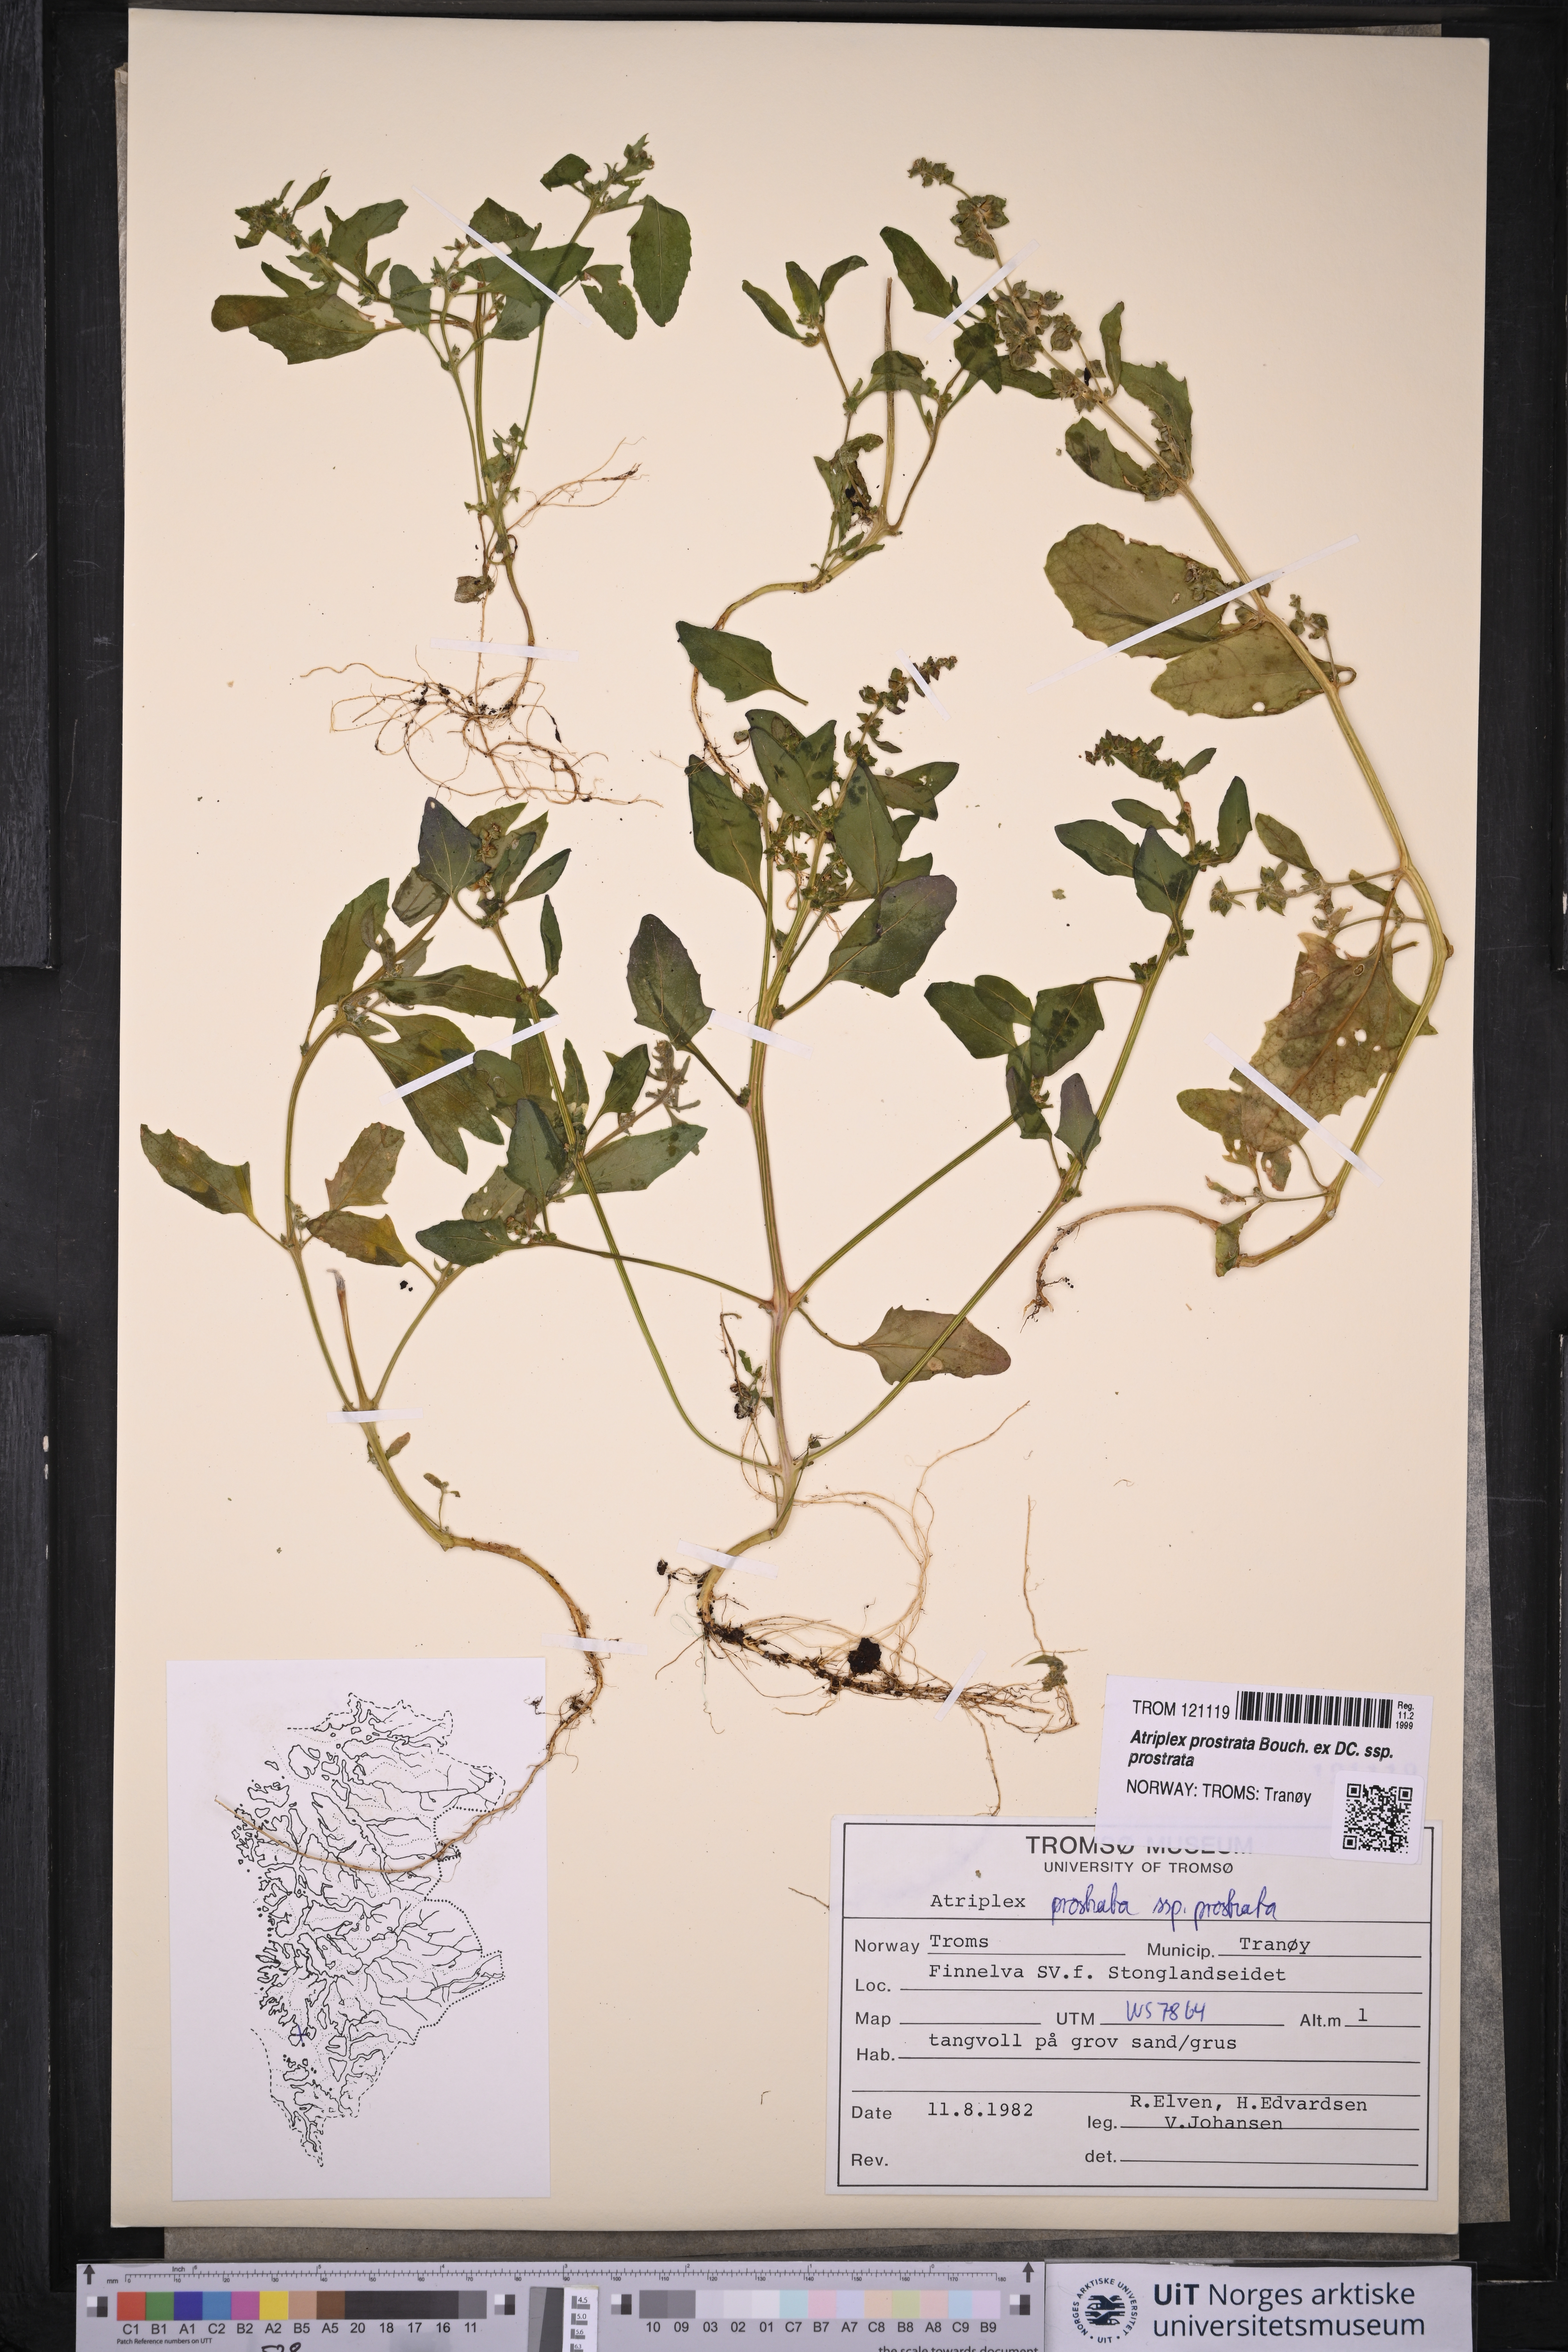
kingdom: Plantae
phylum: Tracheophyta
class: Magnoliopsida
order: Caryophyllales
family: Amaranthaceae
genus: Atriplex
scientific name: Atriplex prostrata
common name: Spear-leaved orache
